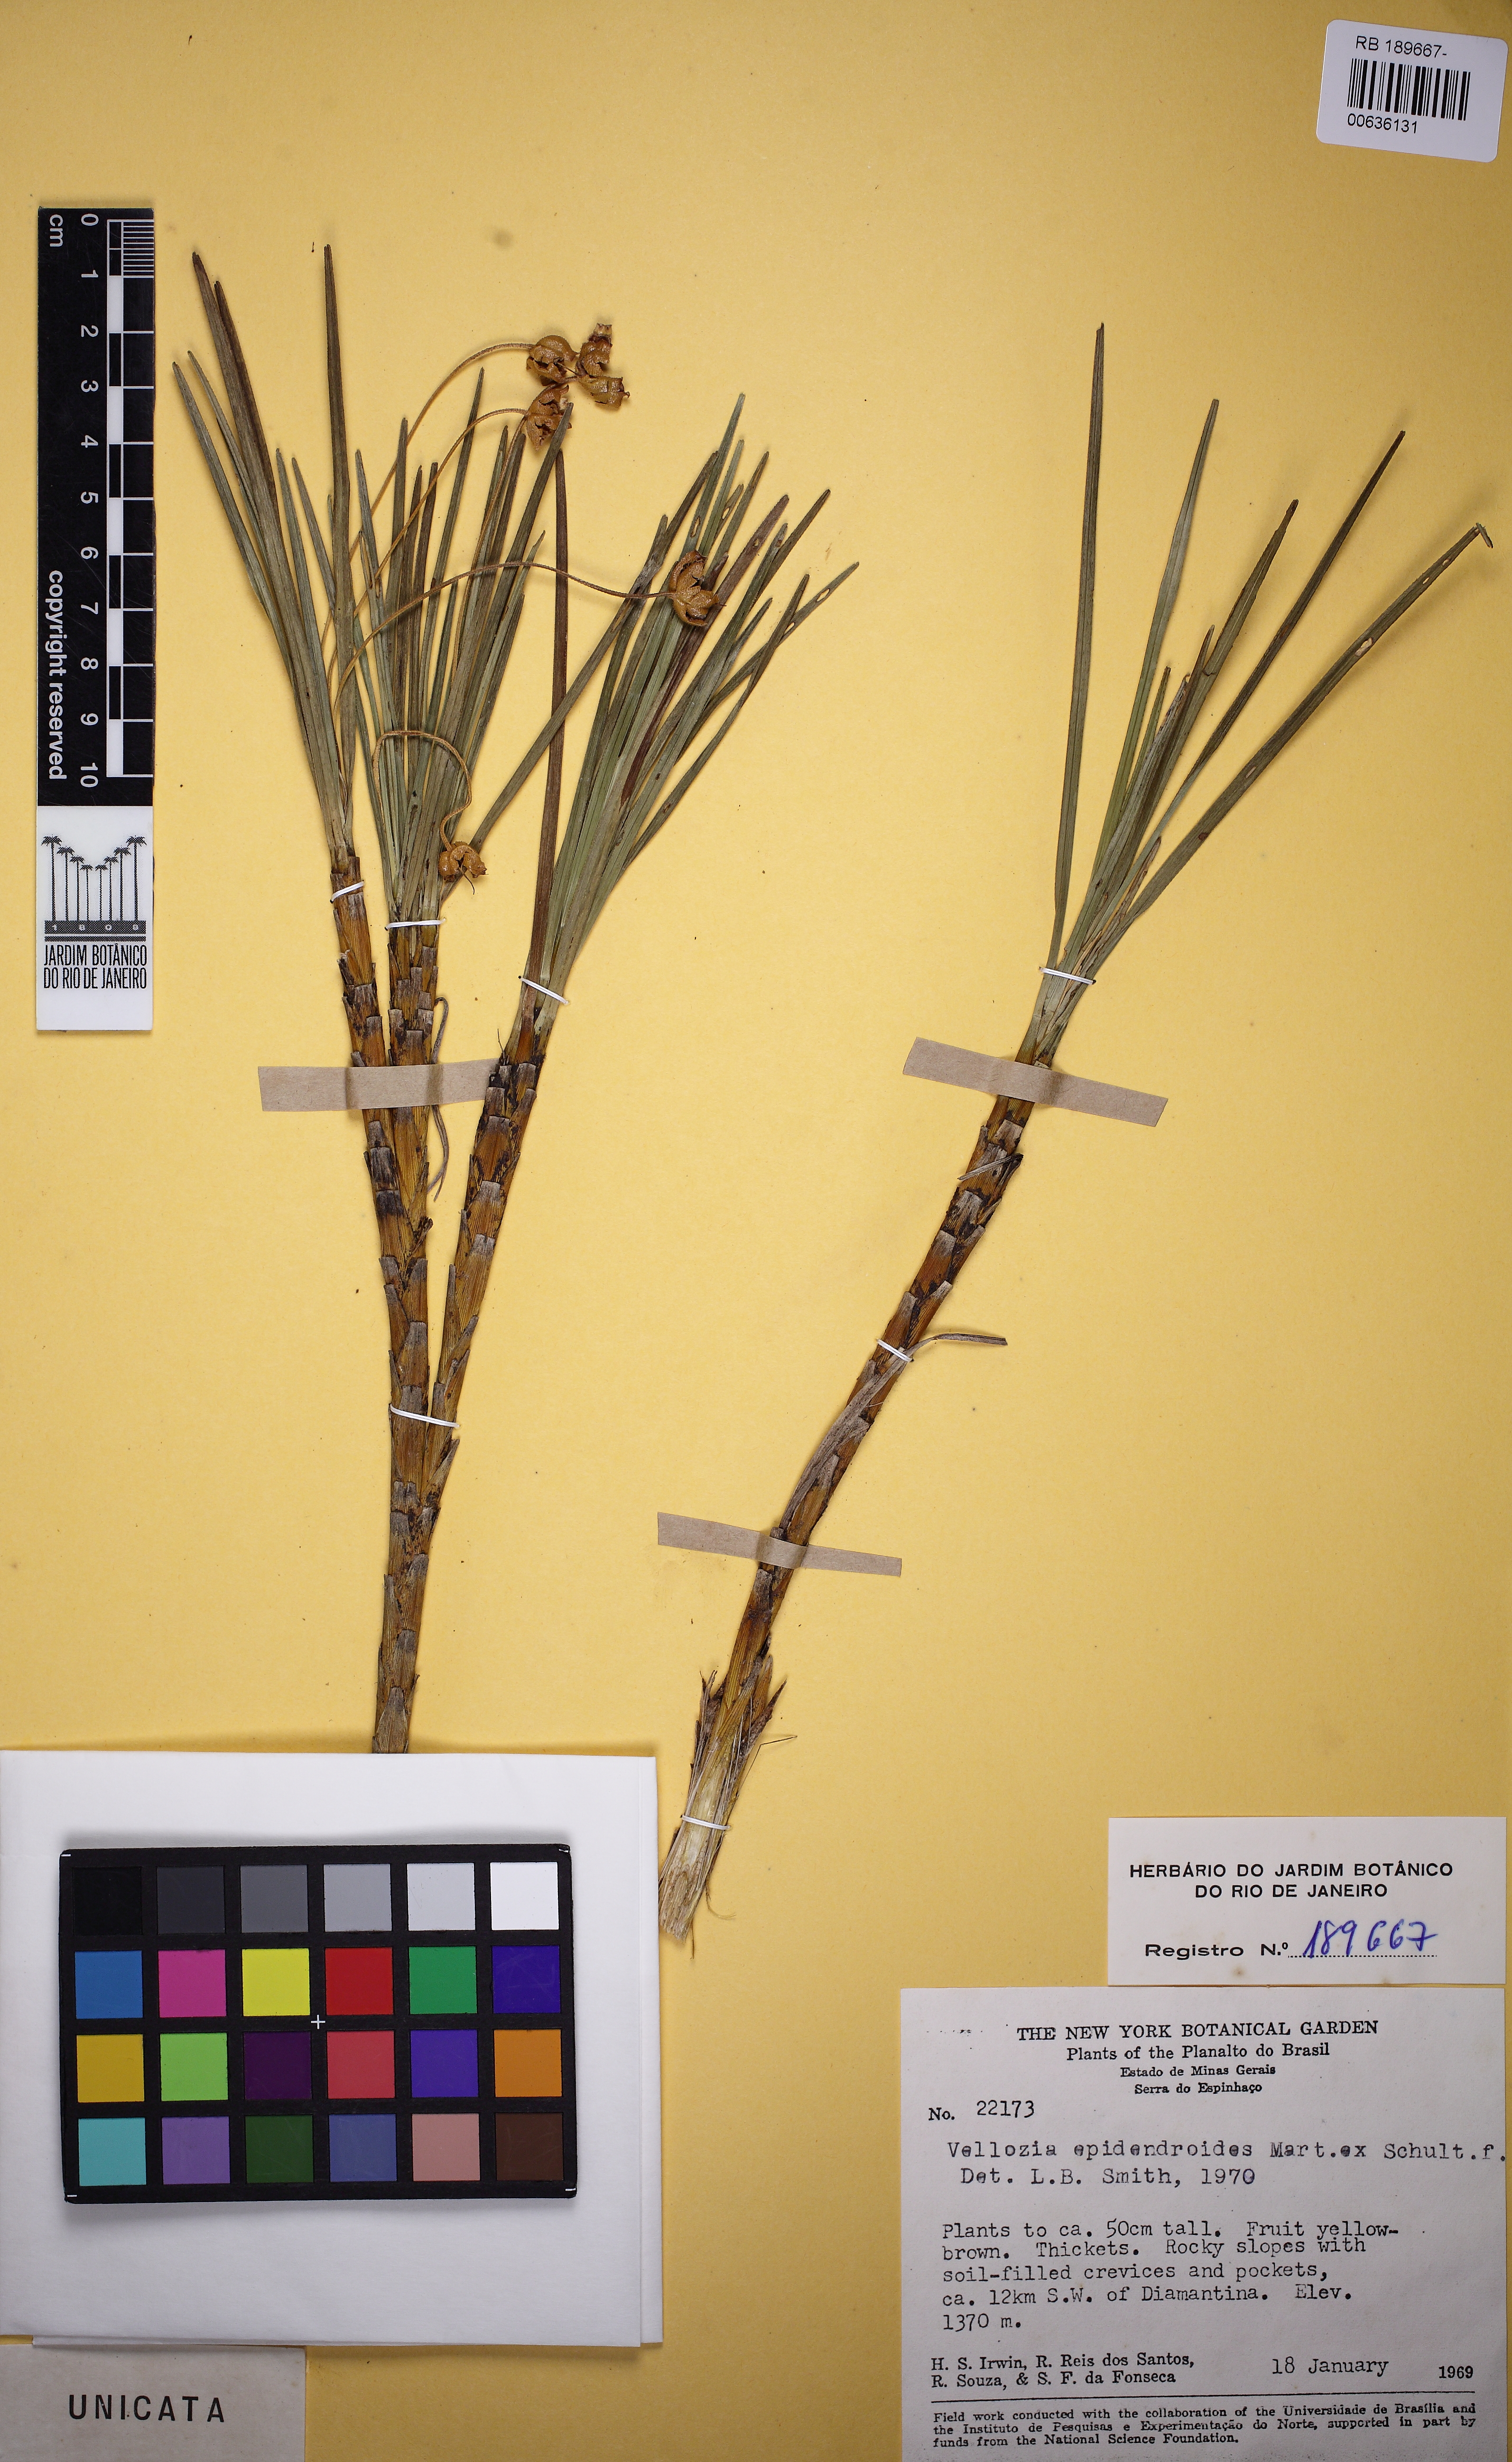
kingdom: Plantae
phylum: Tracheophyta
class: Liliopsida
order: Pandanales
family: Velloziaceae
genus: Vellozia
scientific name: Vellozia epidendroides
